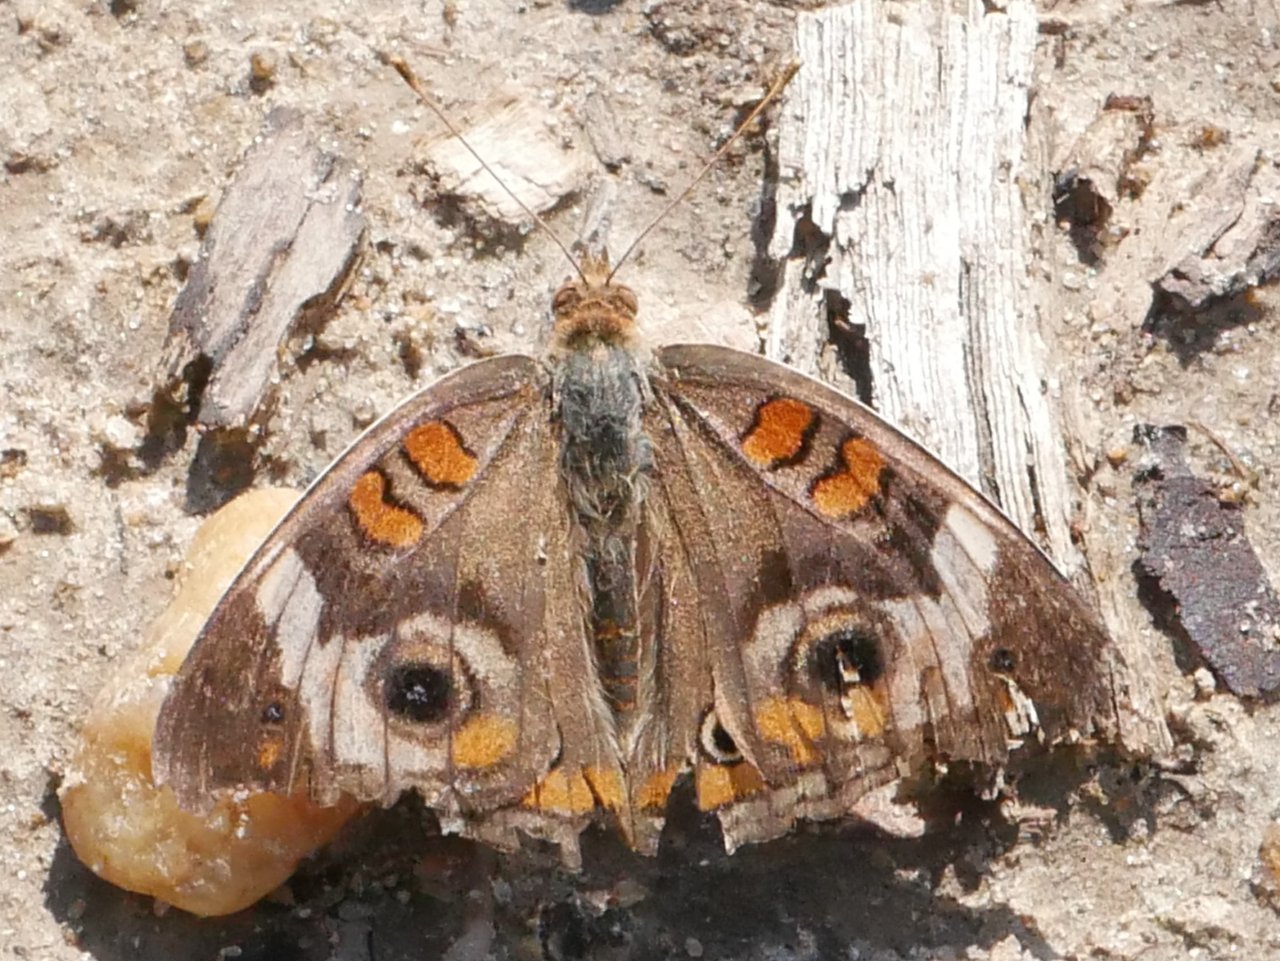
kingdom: Animalia
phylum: Arthropoda
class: Insecta
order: Lepidoptera
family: Nymphalidae
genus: Junonia
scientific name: Junonia coenia
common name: Common Buckeye
